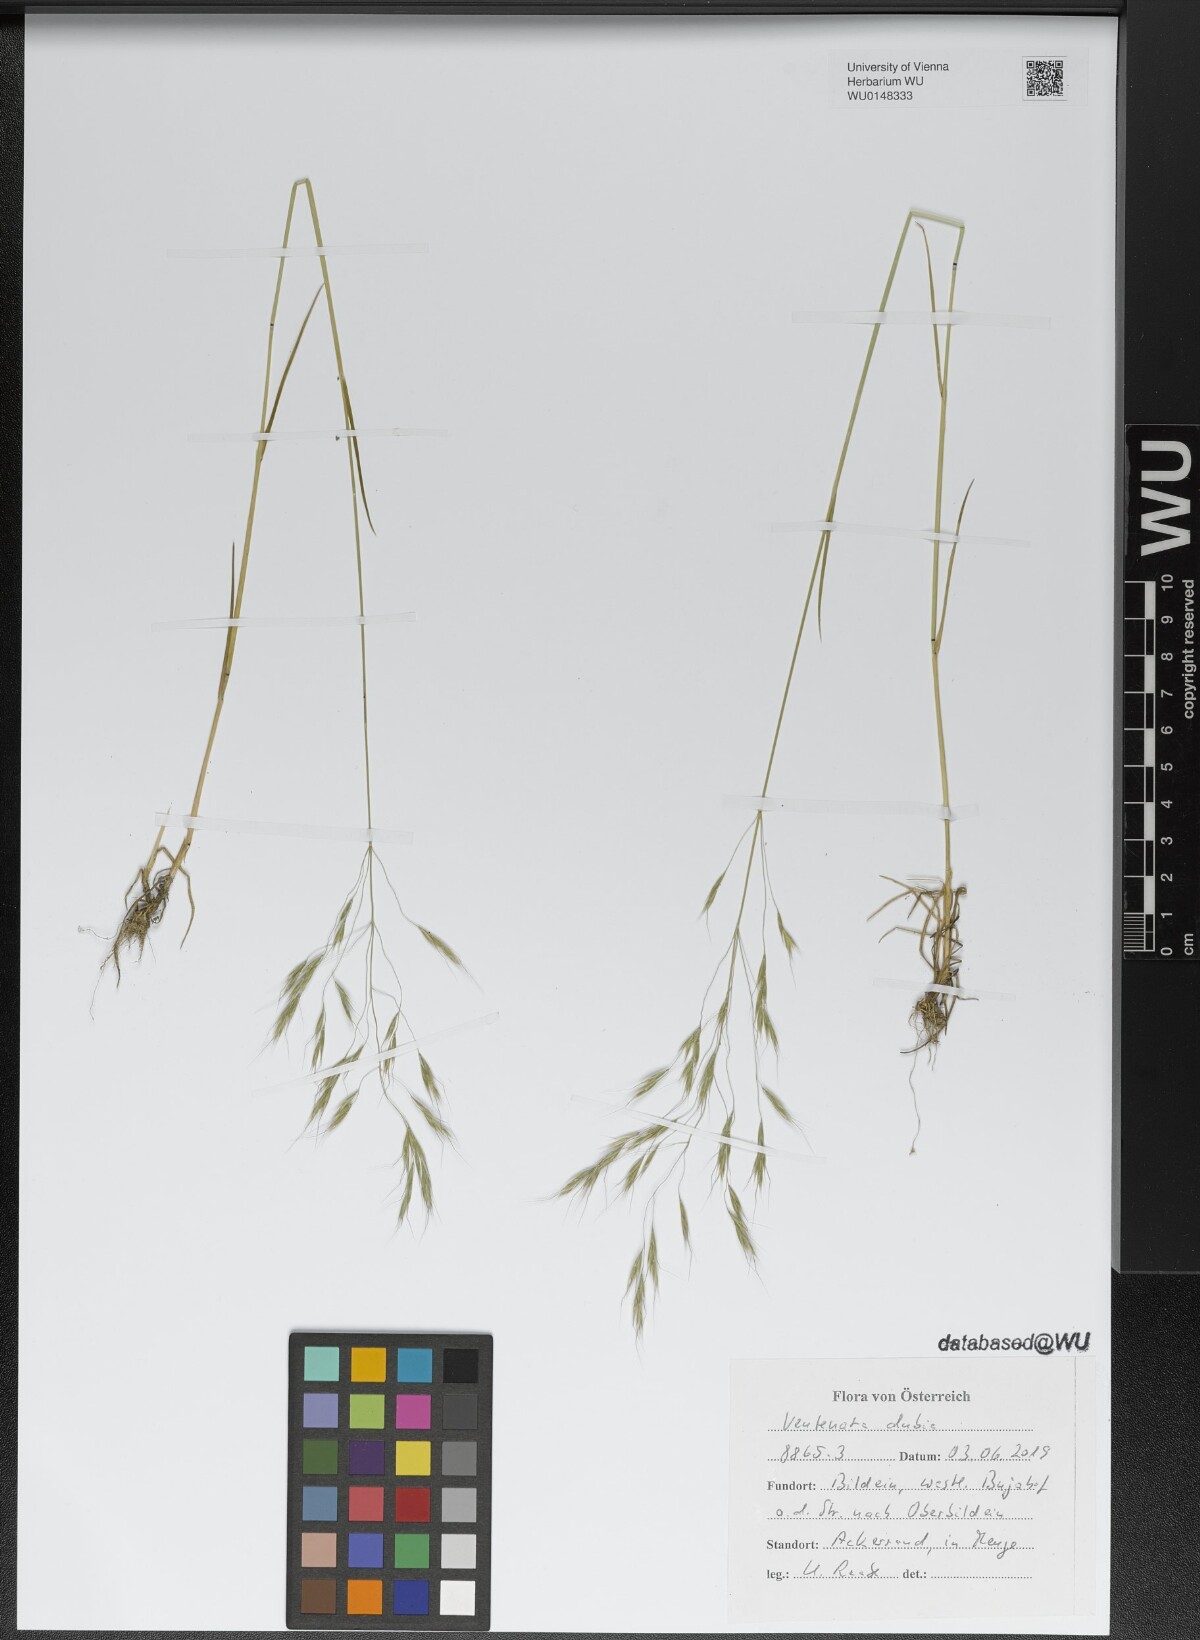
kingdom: Plantae
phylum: Tracheophyta
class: Liliopsida
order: Poales
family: Poaceae
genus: Ventenata
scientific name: Ventenata dubia
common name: North africa grass
